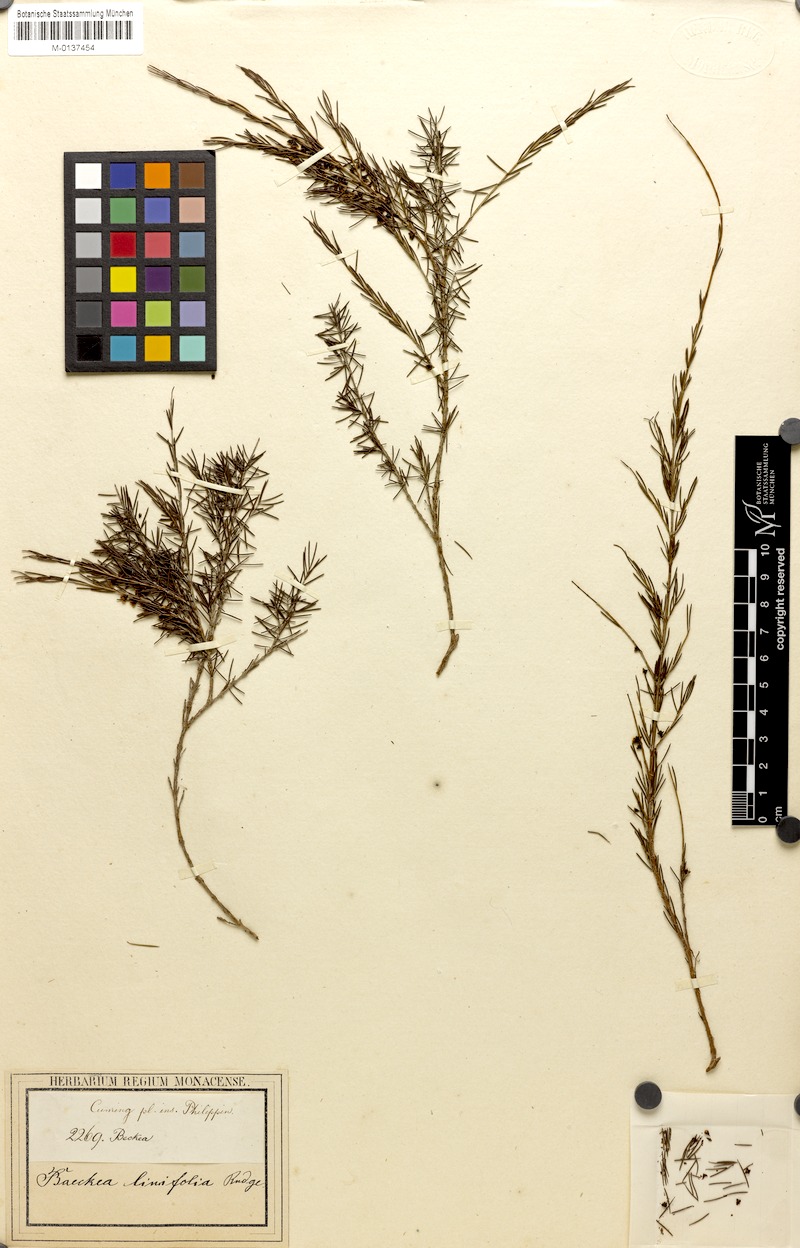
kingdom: Plantae
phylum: Tracheophyta
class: Magnoliopsida
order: Myrtales
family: Myrtaceae
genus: Baeckea
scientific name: Baeckea linifolia
